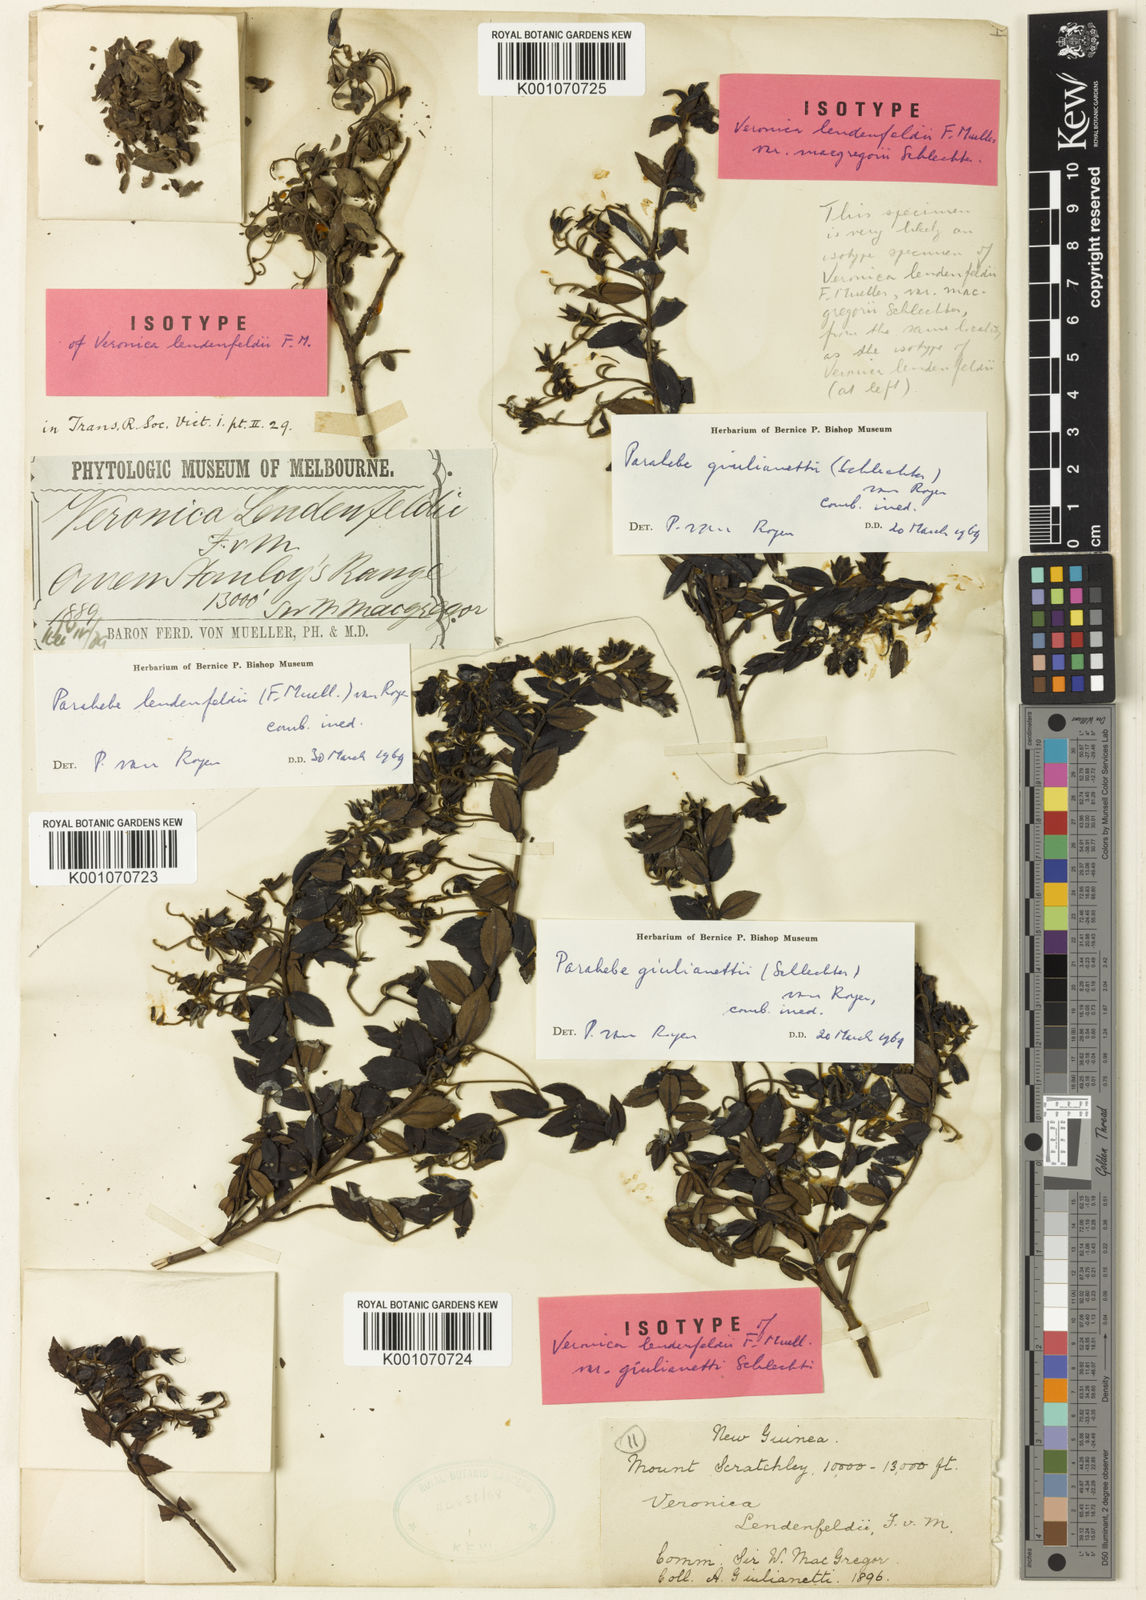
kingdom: Plantae
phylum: Tracheophyta
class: Magnoliopsida
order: Lamiales
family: Plantaginaceae
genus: Veronica
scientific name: Veronica lendenfeldii
